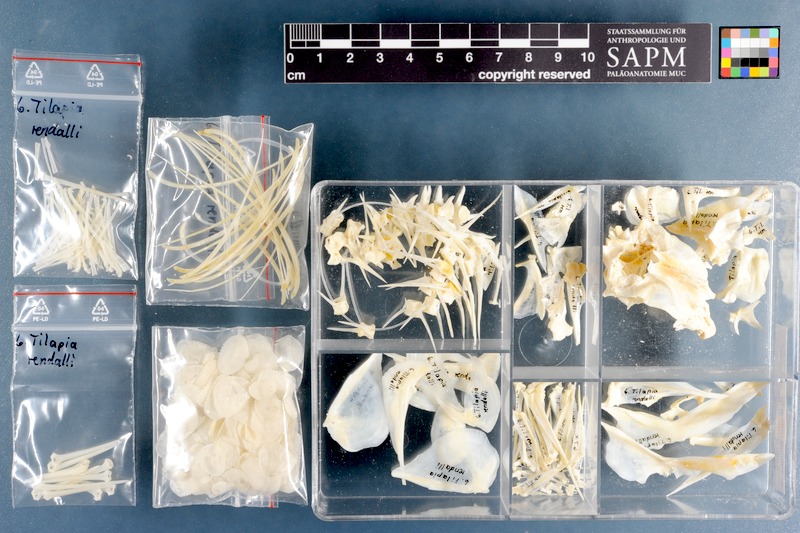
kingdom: Animalia
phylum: Chordata
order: Perciformes
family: Cichlidae
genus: Coptodon
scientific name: Coptodon rendalli
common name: Redbreast tilapia
